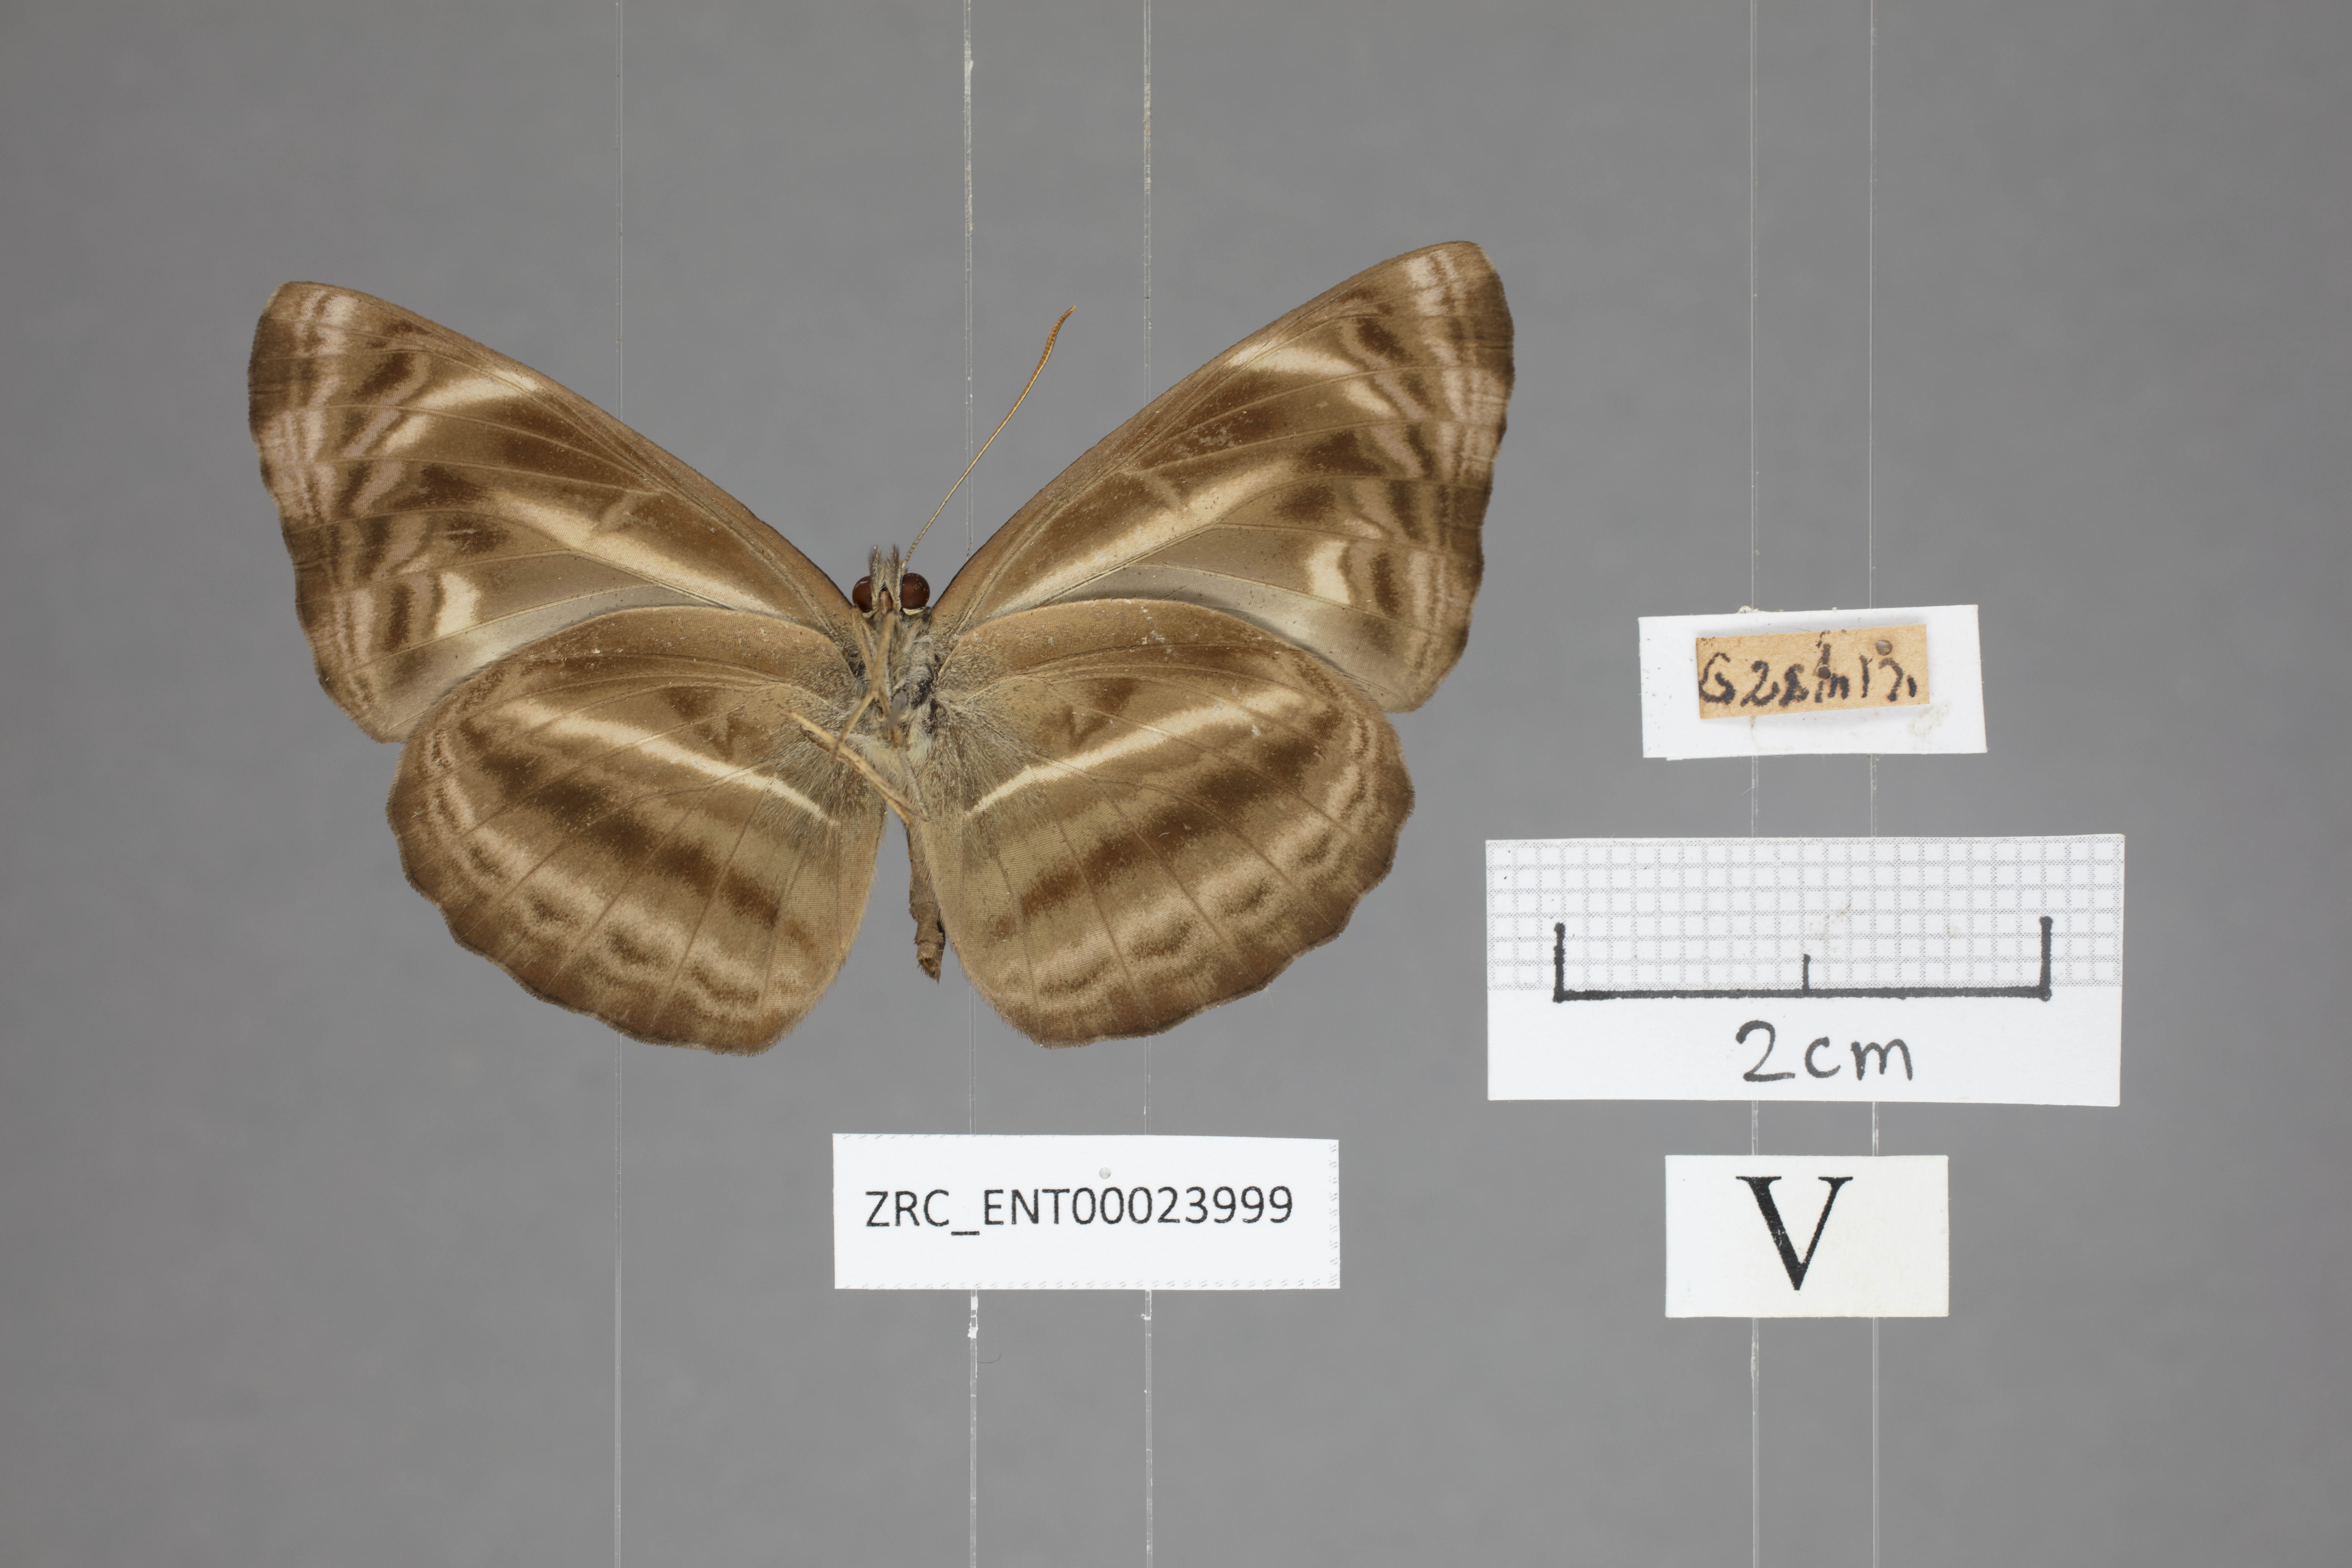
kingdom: Animalia
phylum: Arthropoda
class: Insecta
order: Lepidoptera
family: Nymphalidae
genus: Neptis
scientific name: Neptis harita
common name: Chocolate sailer
